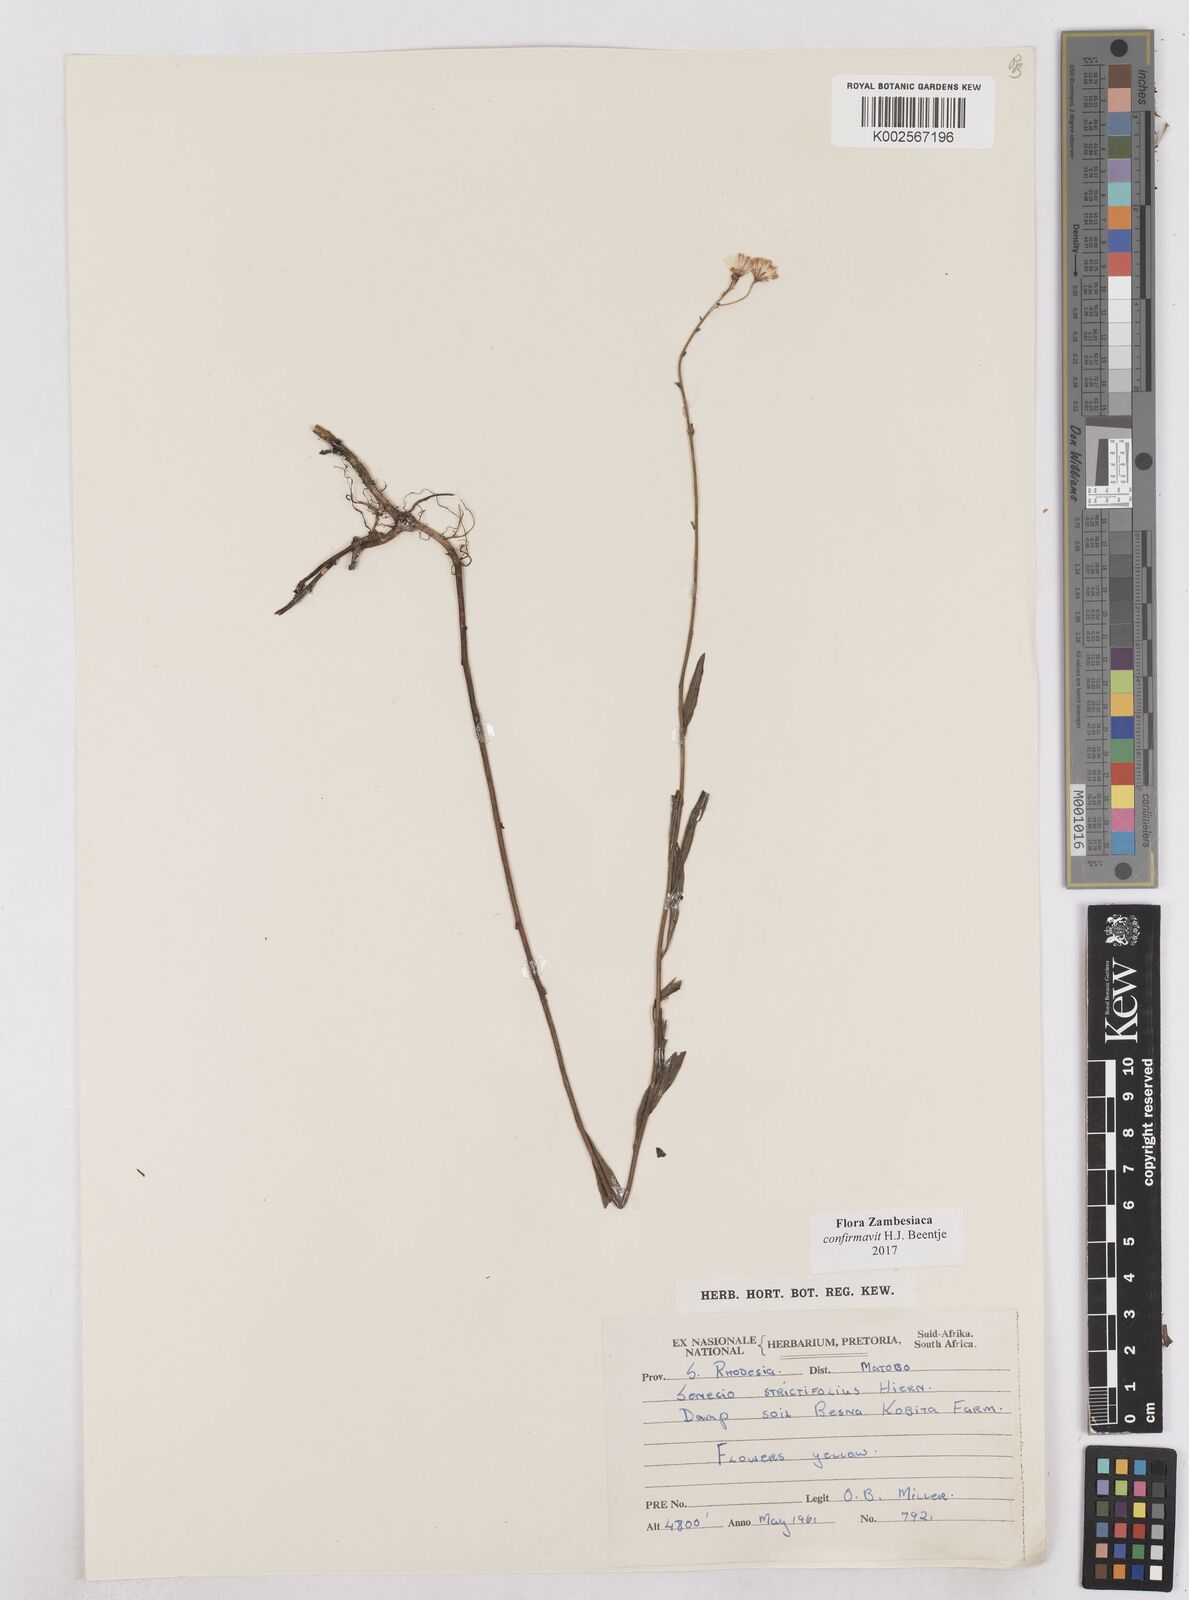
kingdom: Plantae
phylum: Tracheophyta
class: Magnoliopsida
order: Asterales
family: Asteraceae
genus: Senecio
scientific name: Senecio strictifolius
